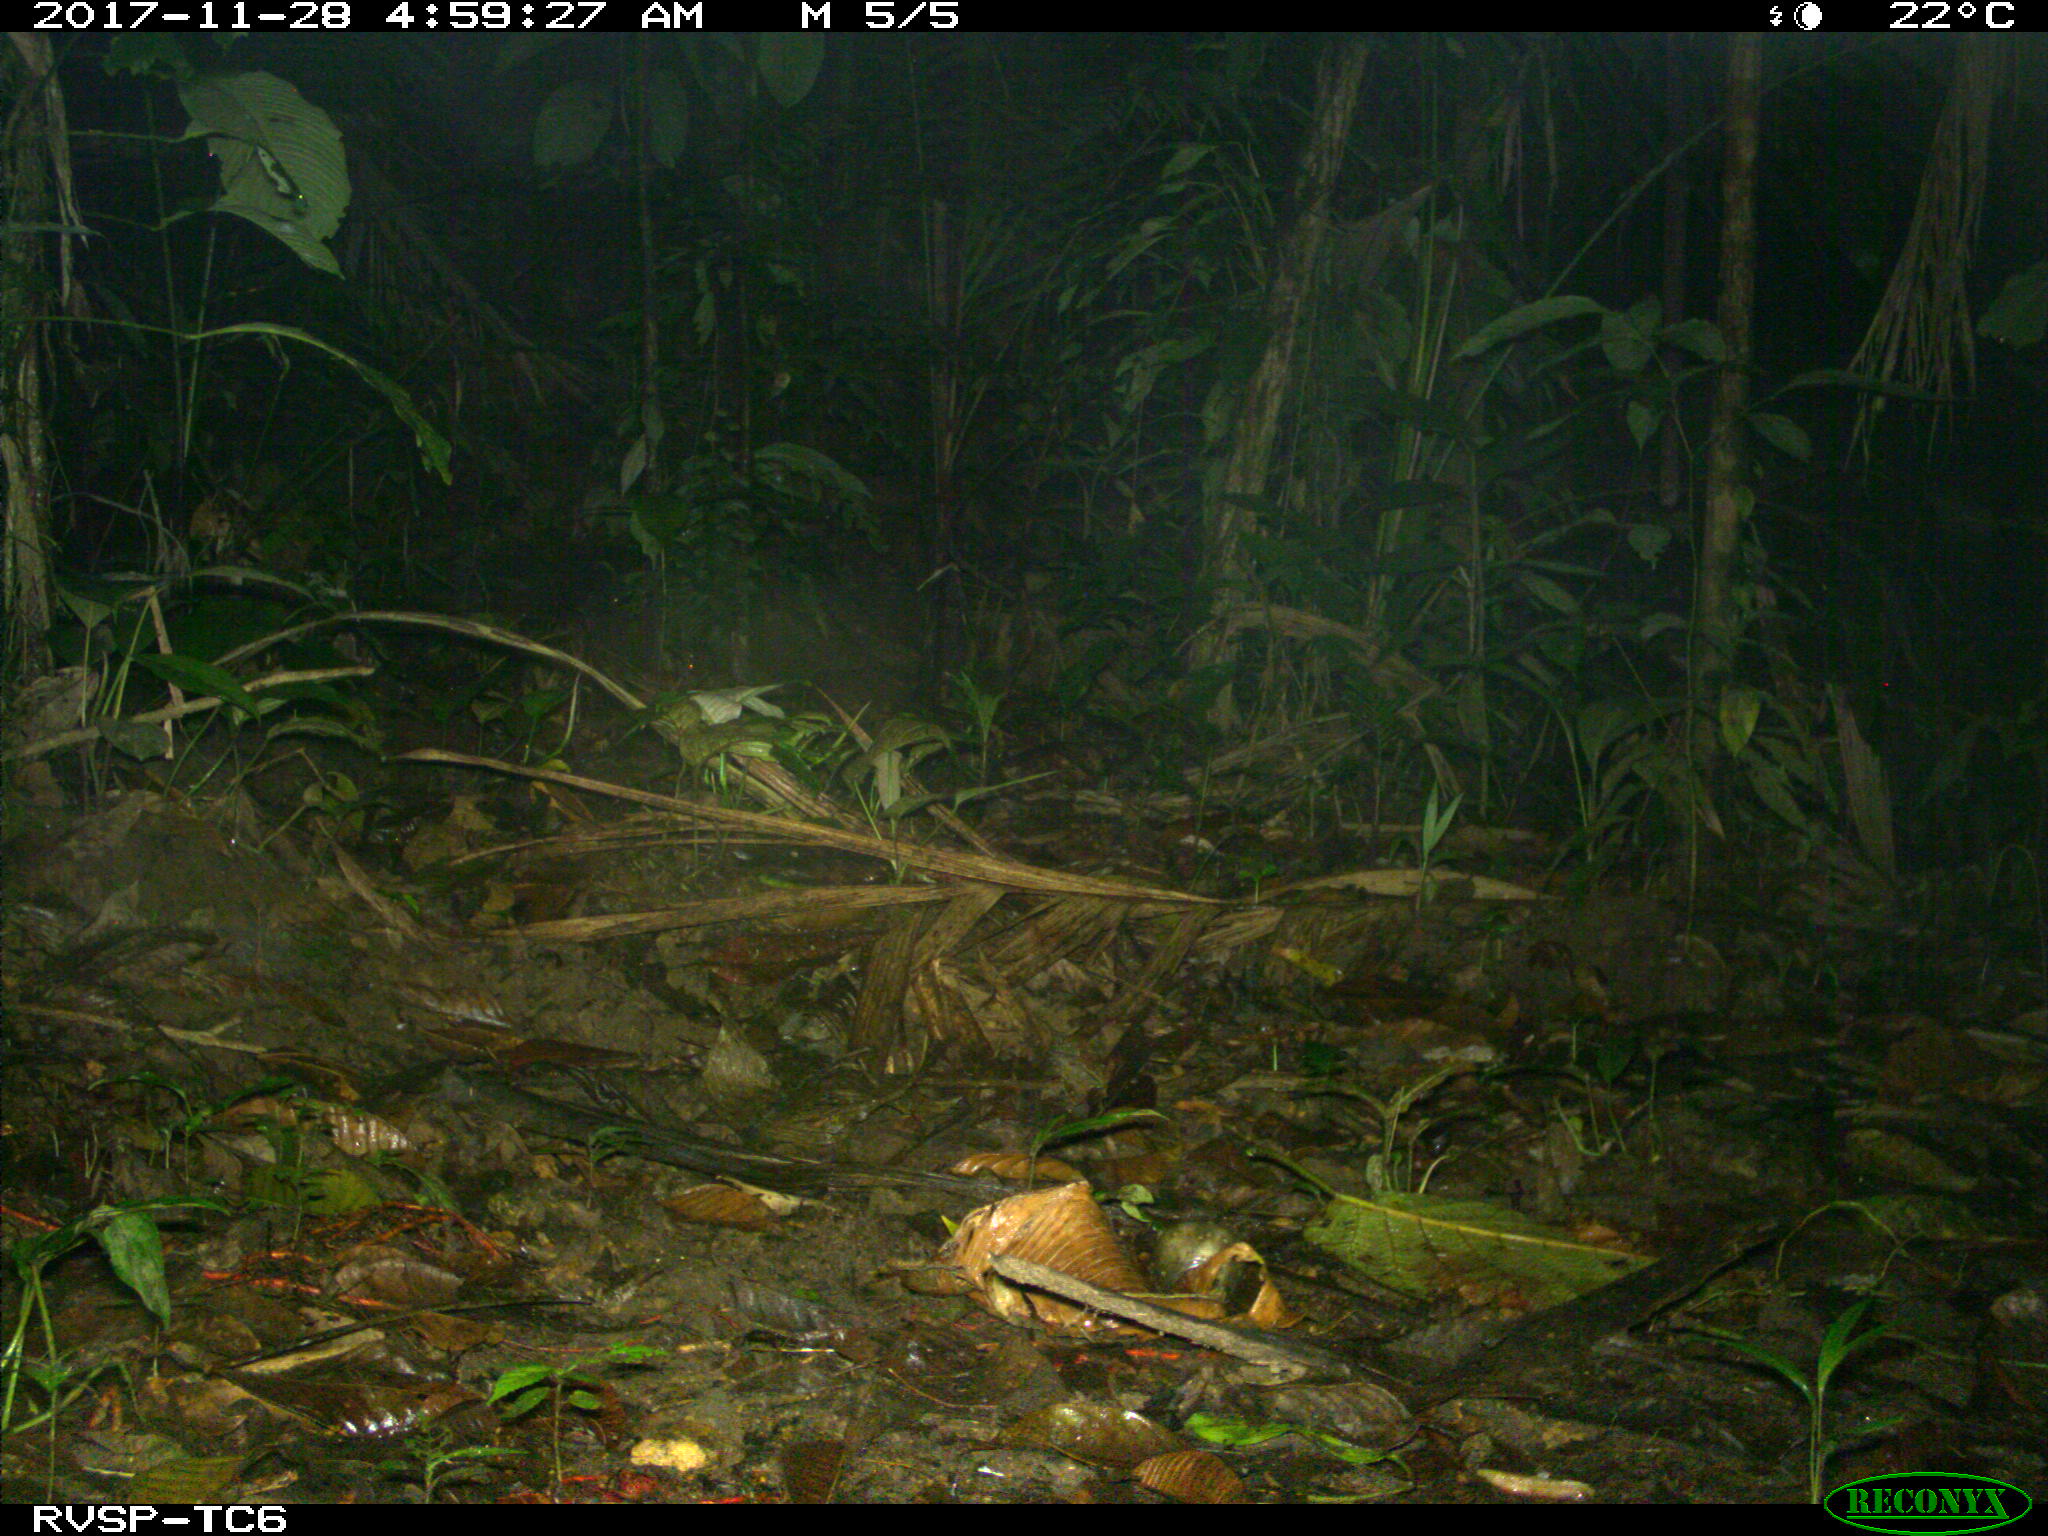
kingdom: Animalia
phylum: Chordata
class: Mammalia
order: Rodentia
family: Echimyidae
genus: Proechimys
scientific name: Proechimys
